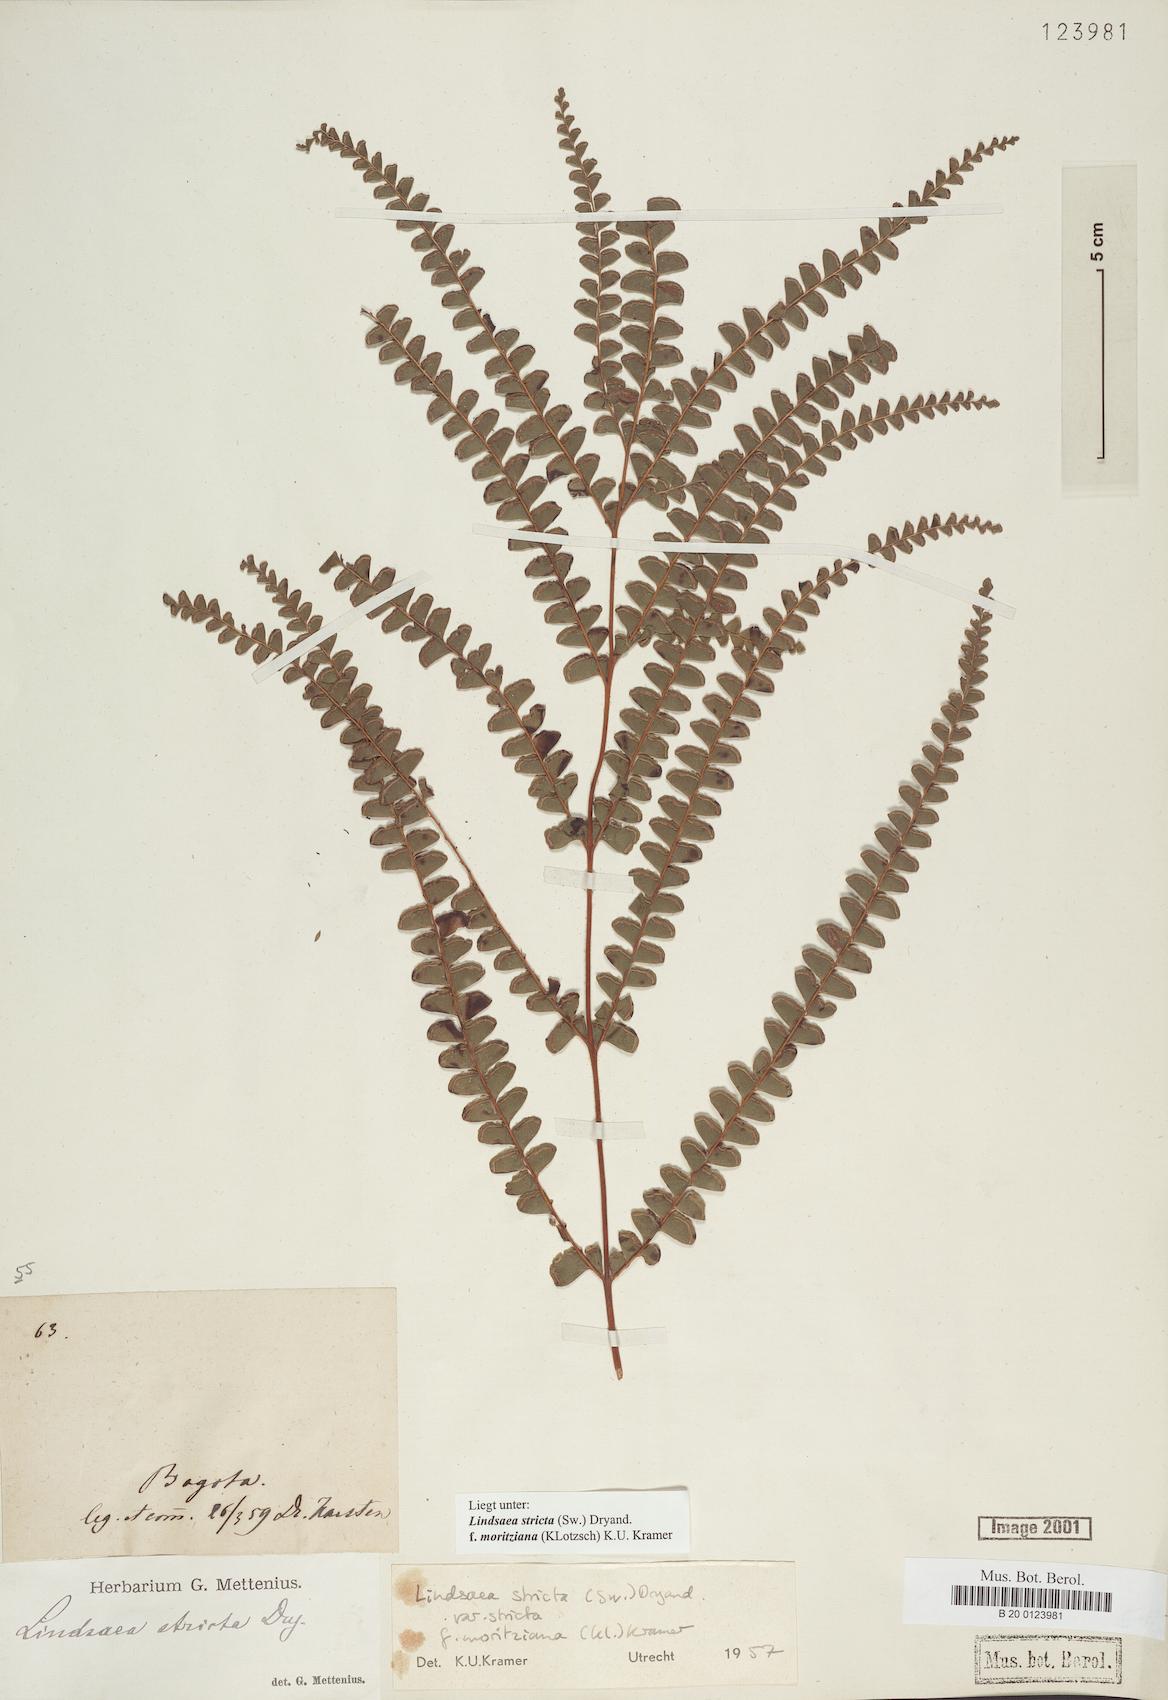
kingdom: Plantae
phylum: Tracheophyta
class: Polypodiopsida
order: Polypodiales
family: Lindsaeaceae
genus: Lindsaea
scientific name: Lindsaea guianensis
